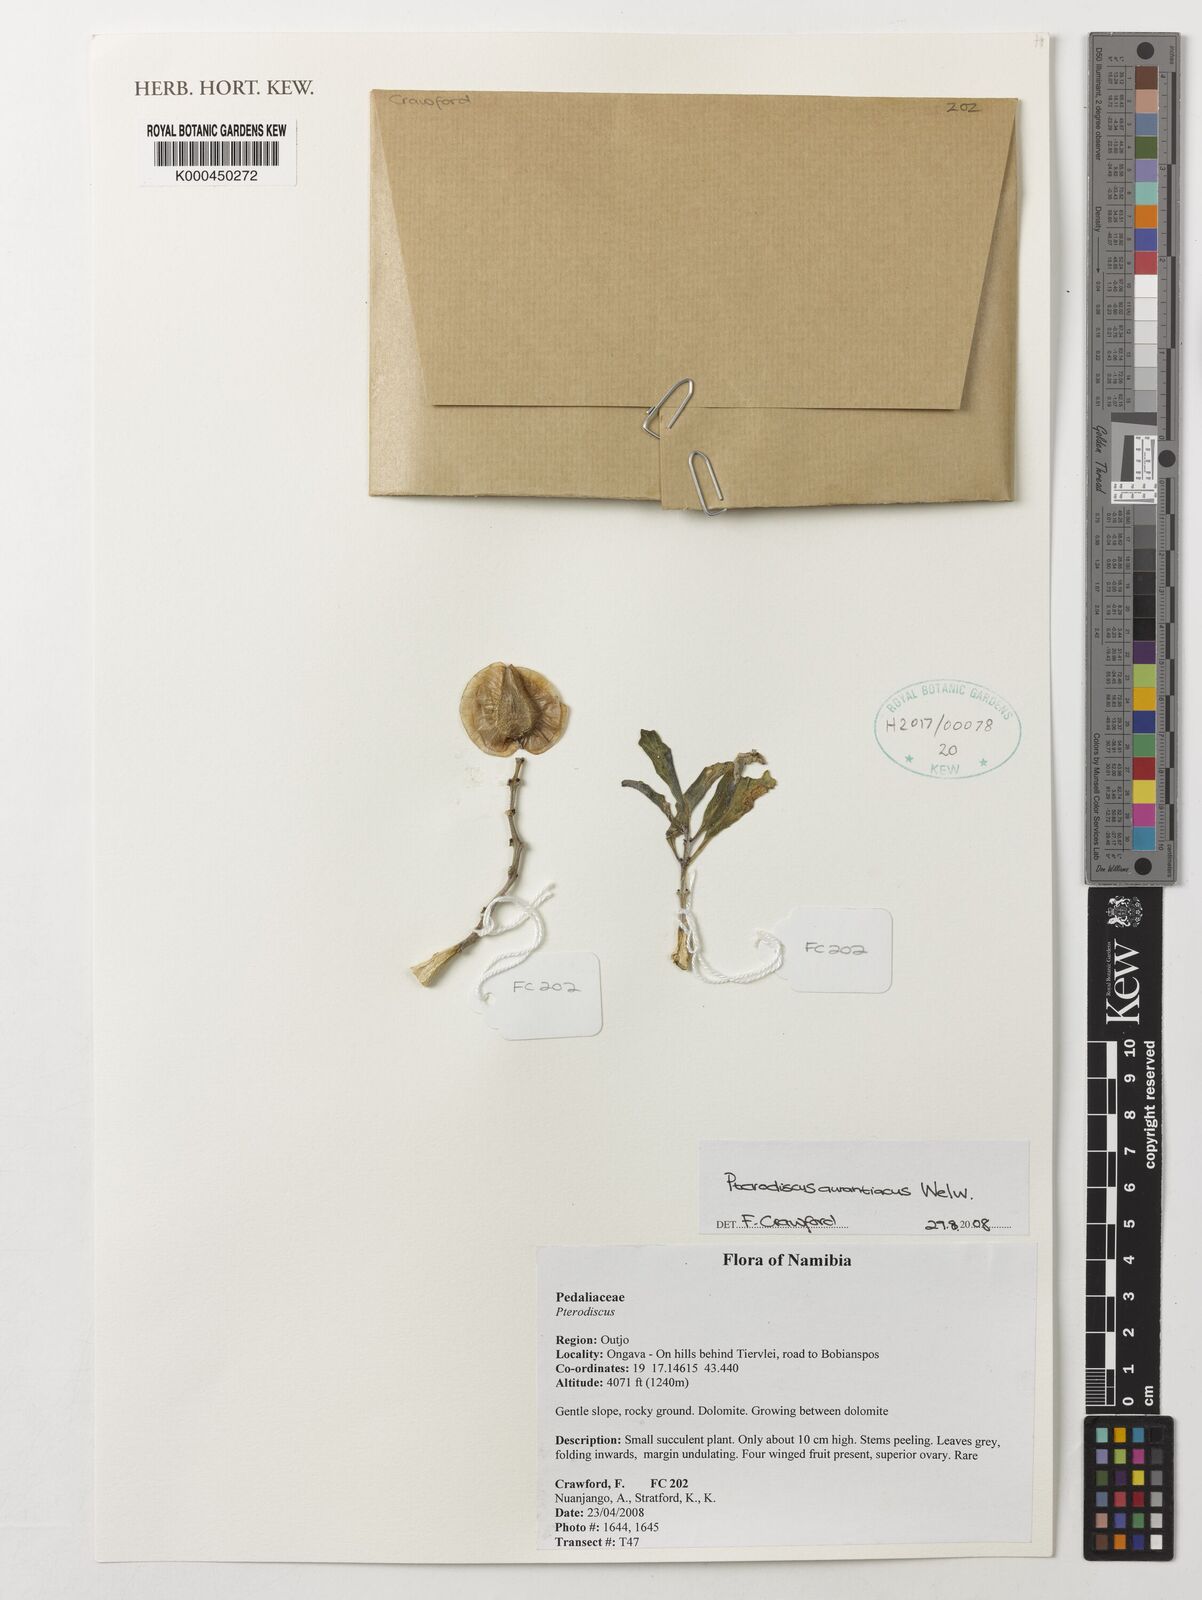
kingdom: Plantae
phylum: Tracheophyta
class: Magnoliopsida
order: Lamiales
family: Pedaliaceae
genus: Pterodiscus
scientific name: Pterodiscus aurantiacus
